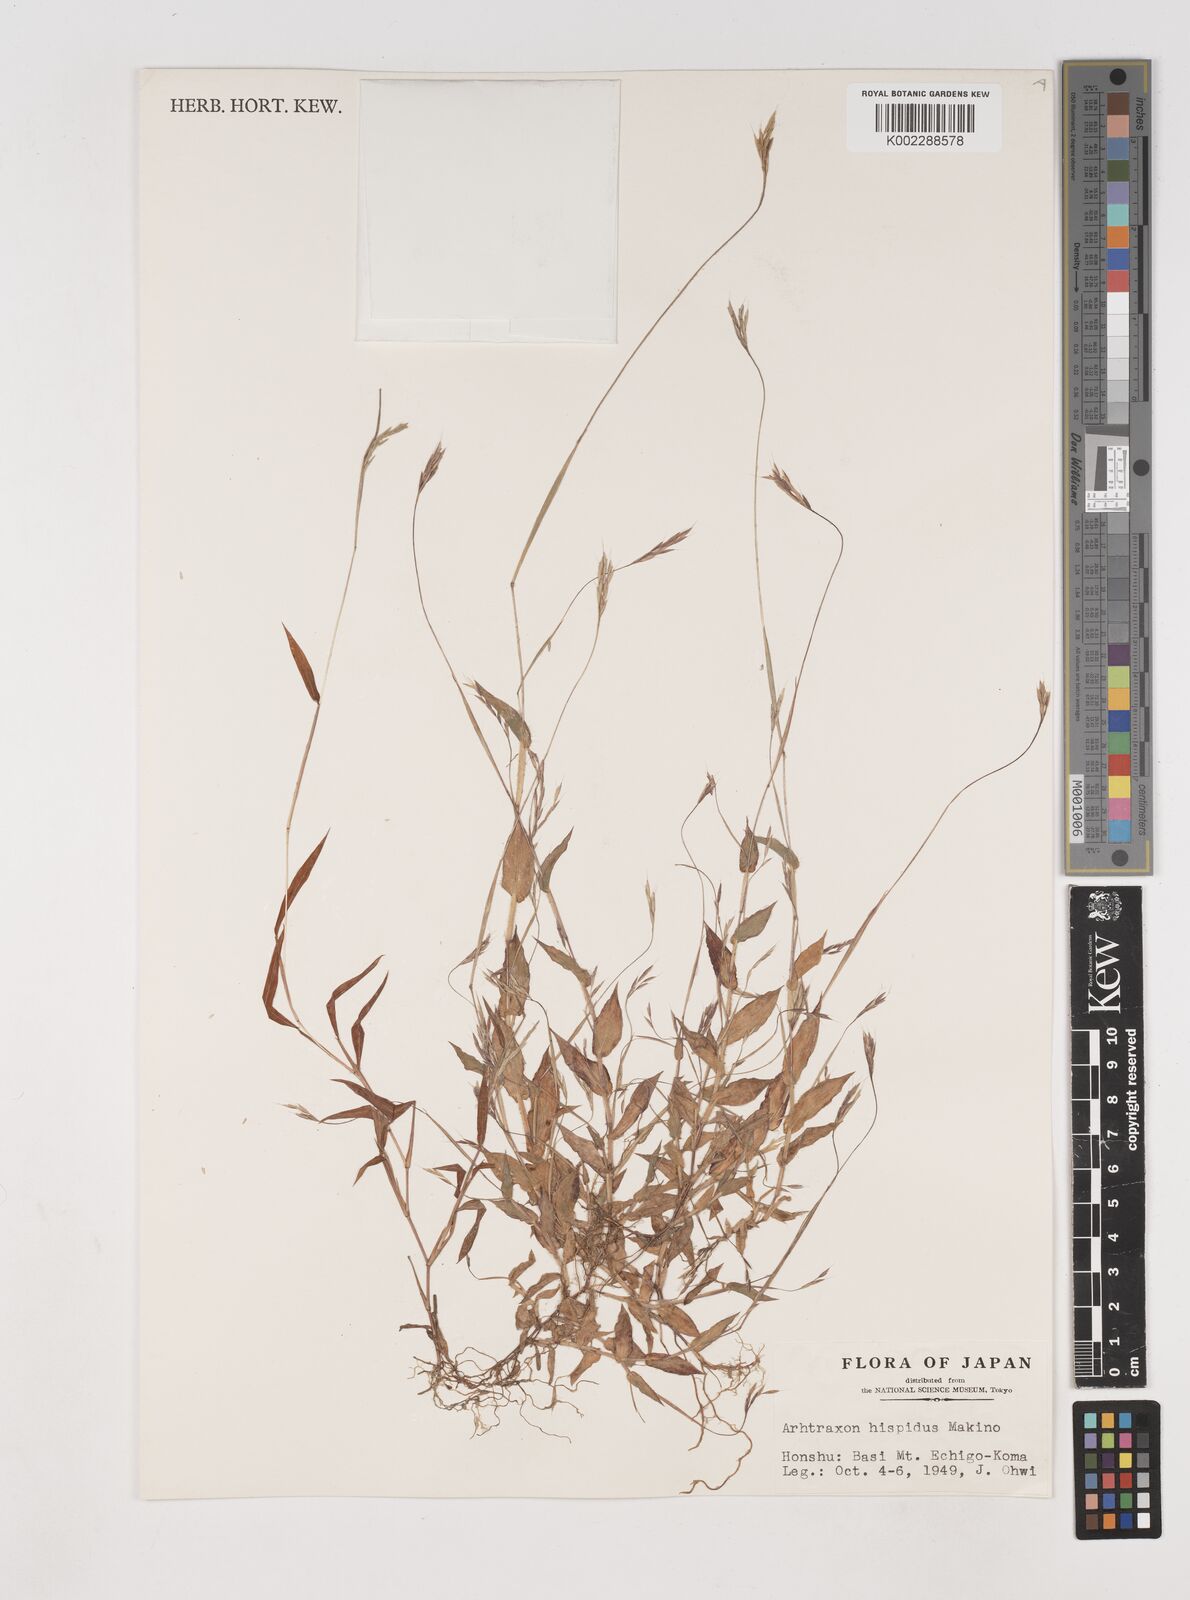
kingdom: Plantae
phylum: Tracheophyta
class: Liliopsida
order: Poales
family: Poaceae
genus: Arthraxon
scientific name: Arthraxon hispidus
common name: Small carpgrass
